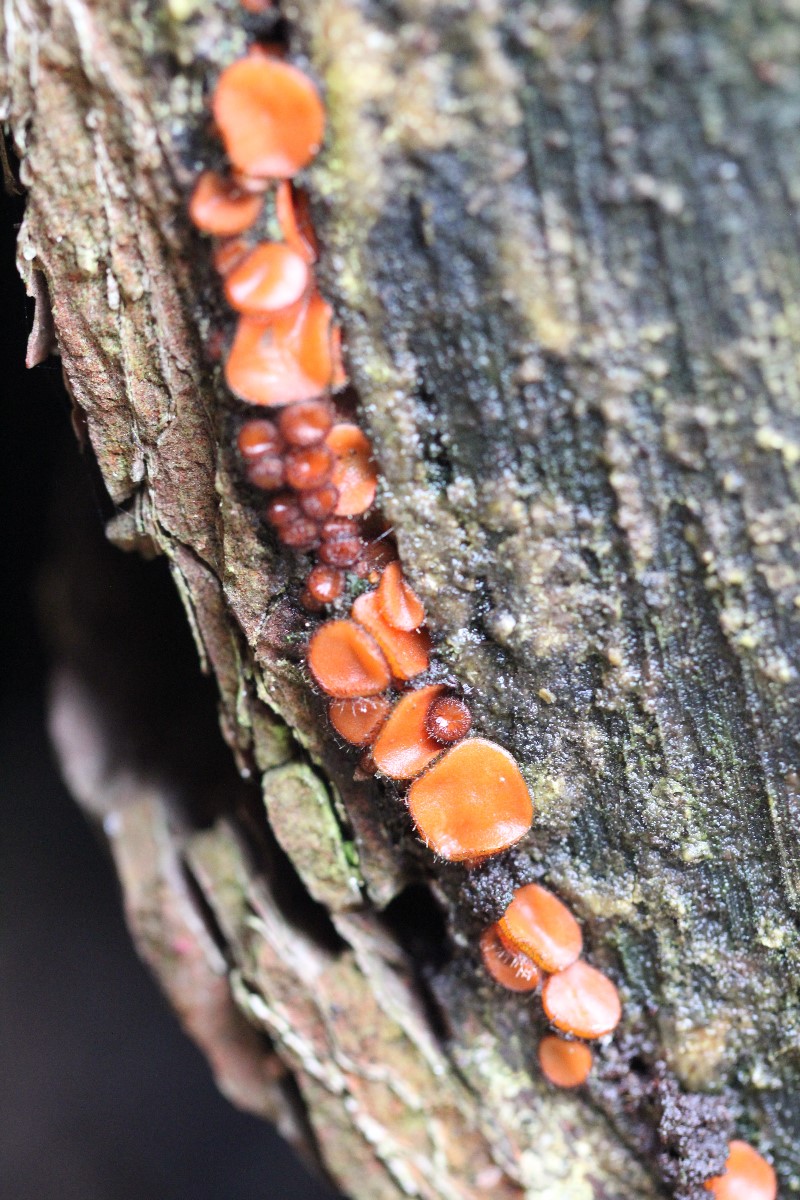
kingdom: Fungi
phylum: Ascomycota
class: Pezizomycetes
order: Pezizales
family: Pyronemataceae
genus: Scutellinia
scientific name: Scutellinia
